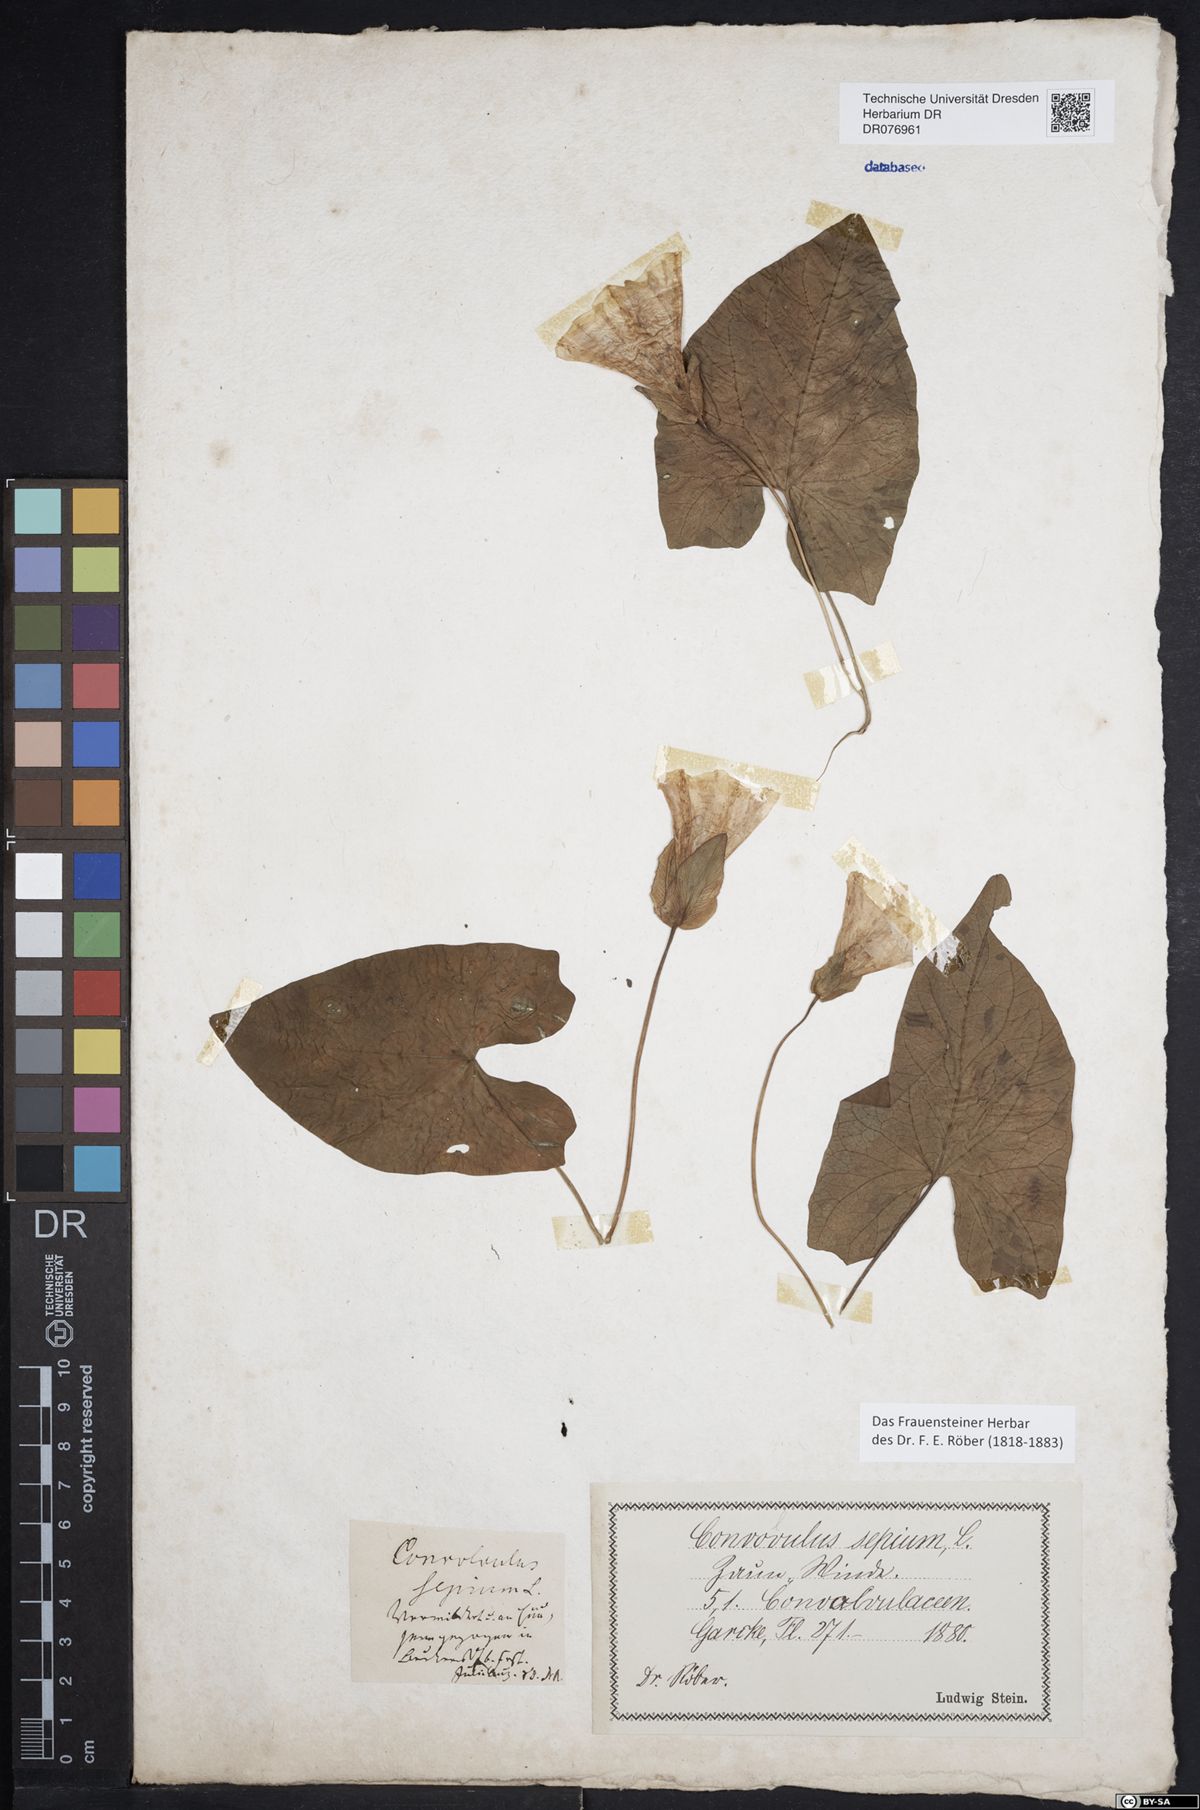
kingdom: Plantae
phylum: Tracheophyta
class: Magnoliopsida
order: Solanales
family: Convolvulaceae
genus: Calystegia
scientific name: Calystegia sepium
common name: Hedge bindweed
